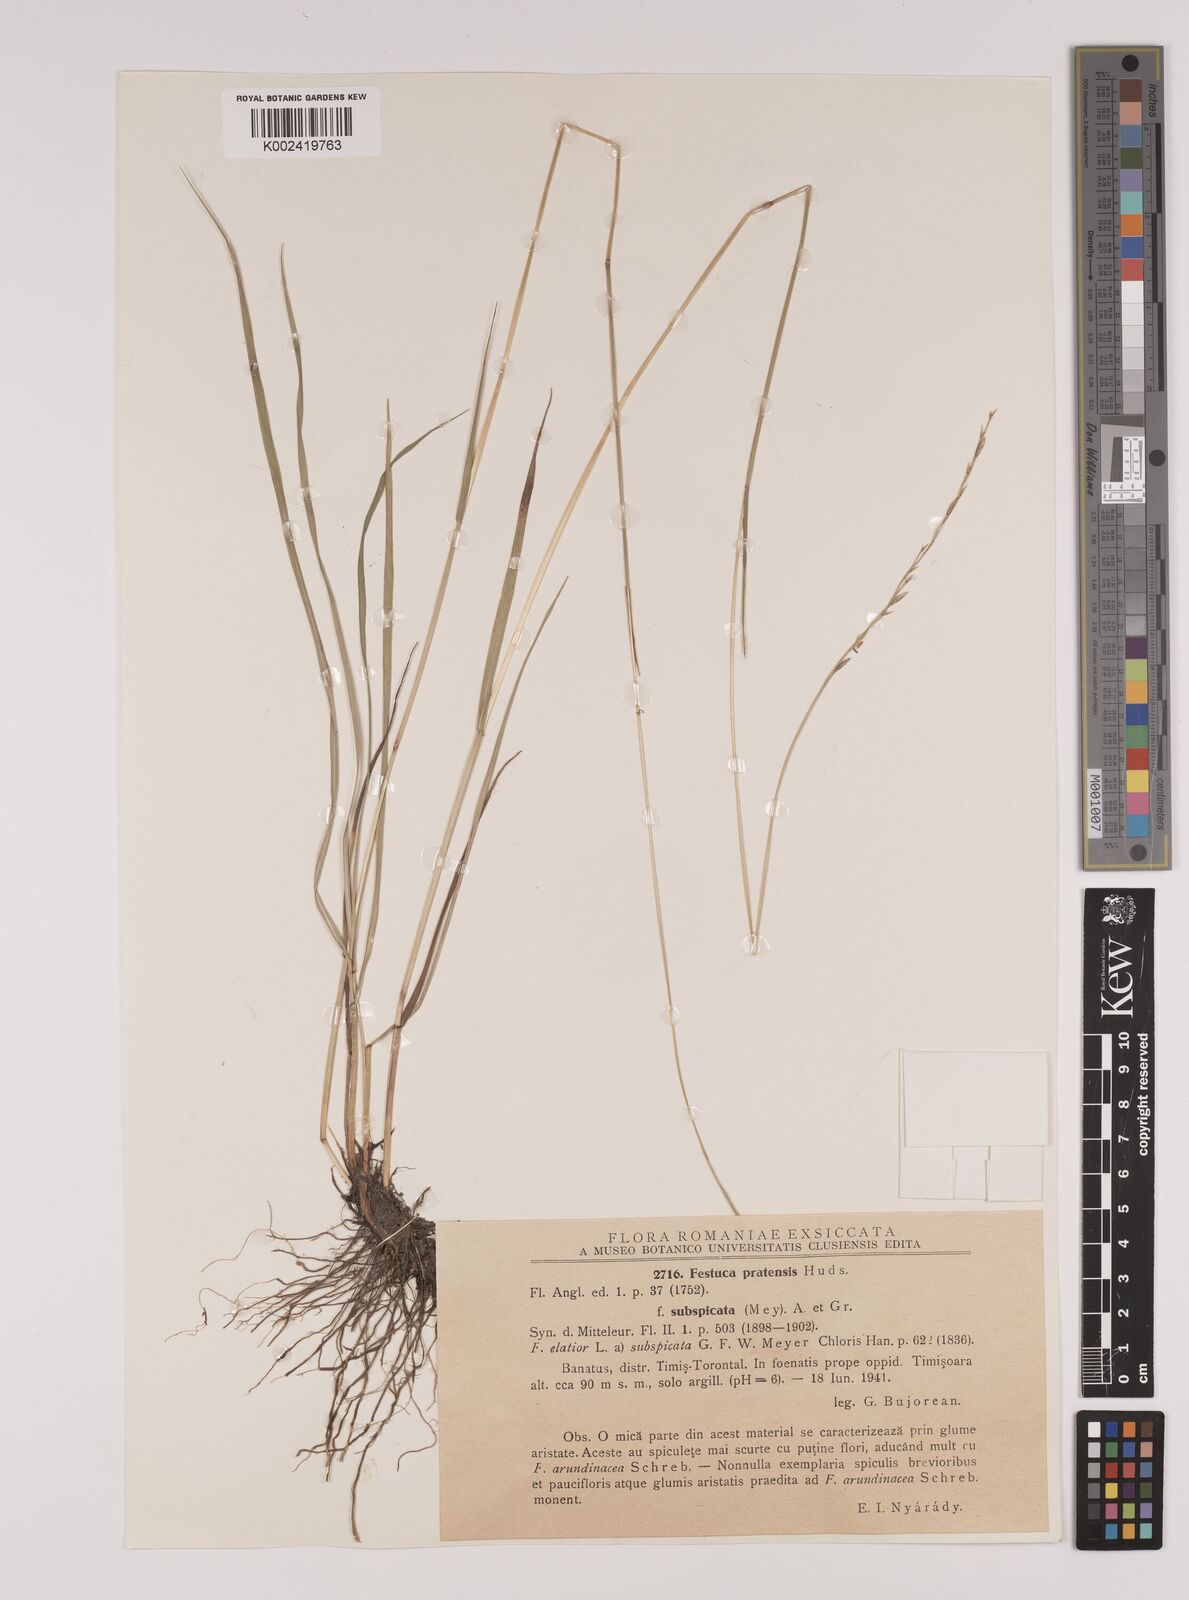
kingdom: Plantae
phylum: Tracheophyta
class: Liliopsida
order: Poales
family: Poaceae
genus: Lolium
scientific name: Lolium pratense
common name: Dover grass
